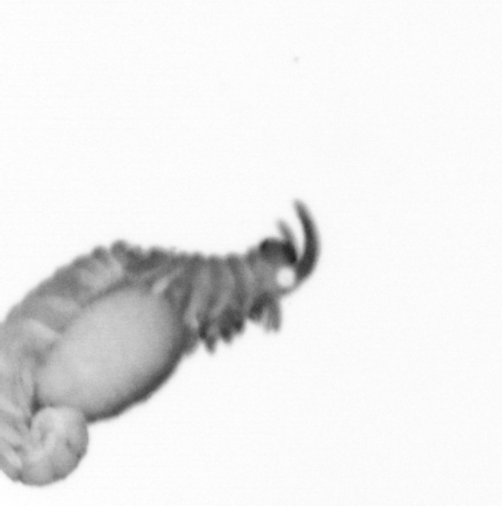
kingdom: Animalia
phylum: Annelida
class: Polychaeta
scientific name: Polychaeta
